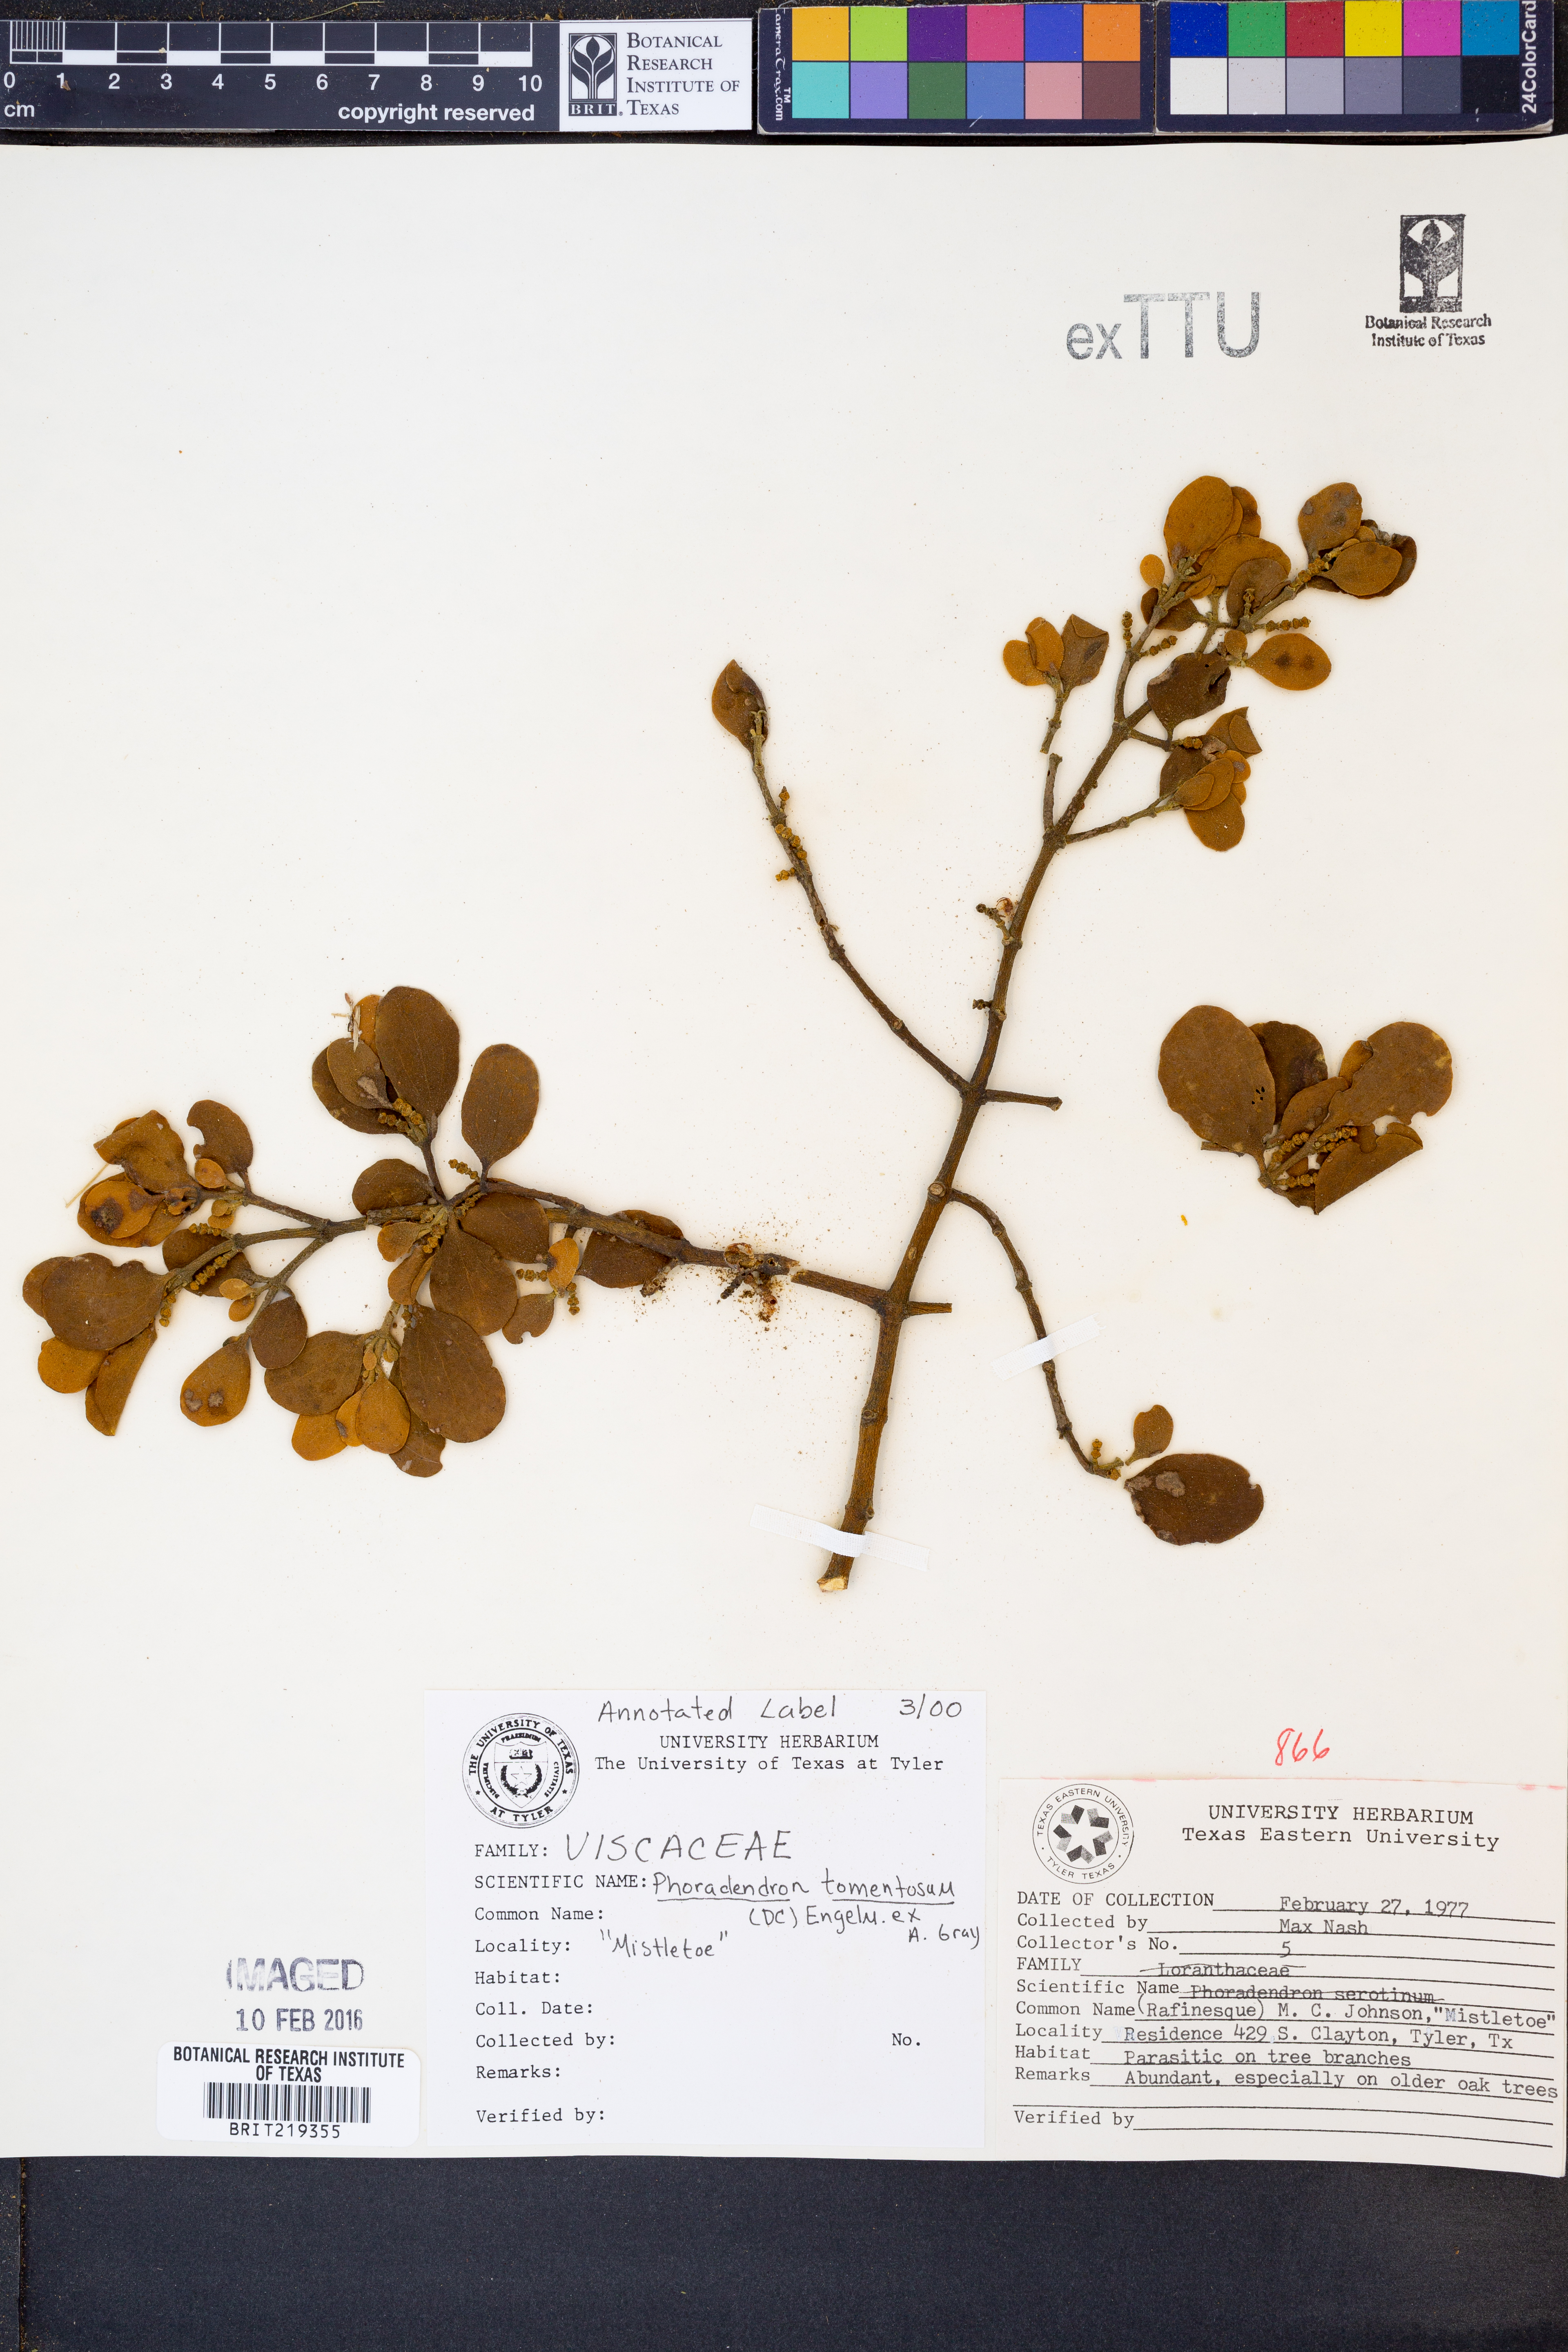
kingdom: Plantae
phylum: Tracheophyta
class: Magnoliopsida
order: Santalales
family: Viscaceae
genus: Phoradendron
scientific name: Phoradendron leucarpum
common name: Pacific mistletoe
